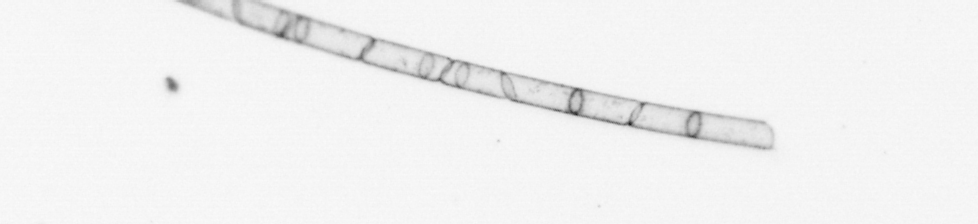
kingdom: Chromista
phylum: Ochrophyta
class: Bacillariophyceae
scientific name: Bacillariophyceae
